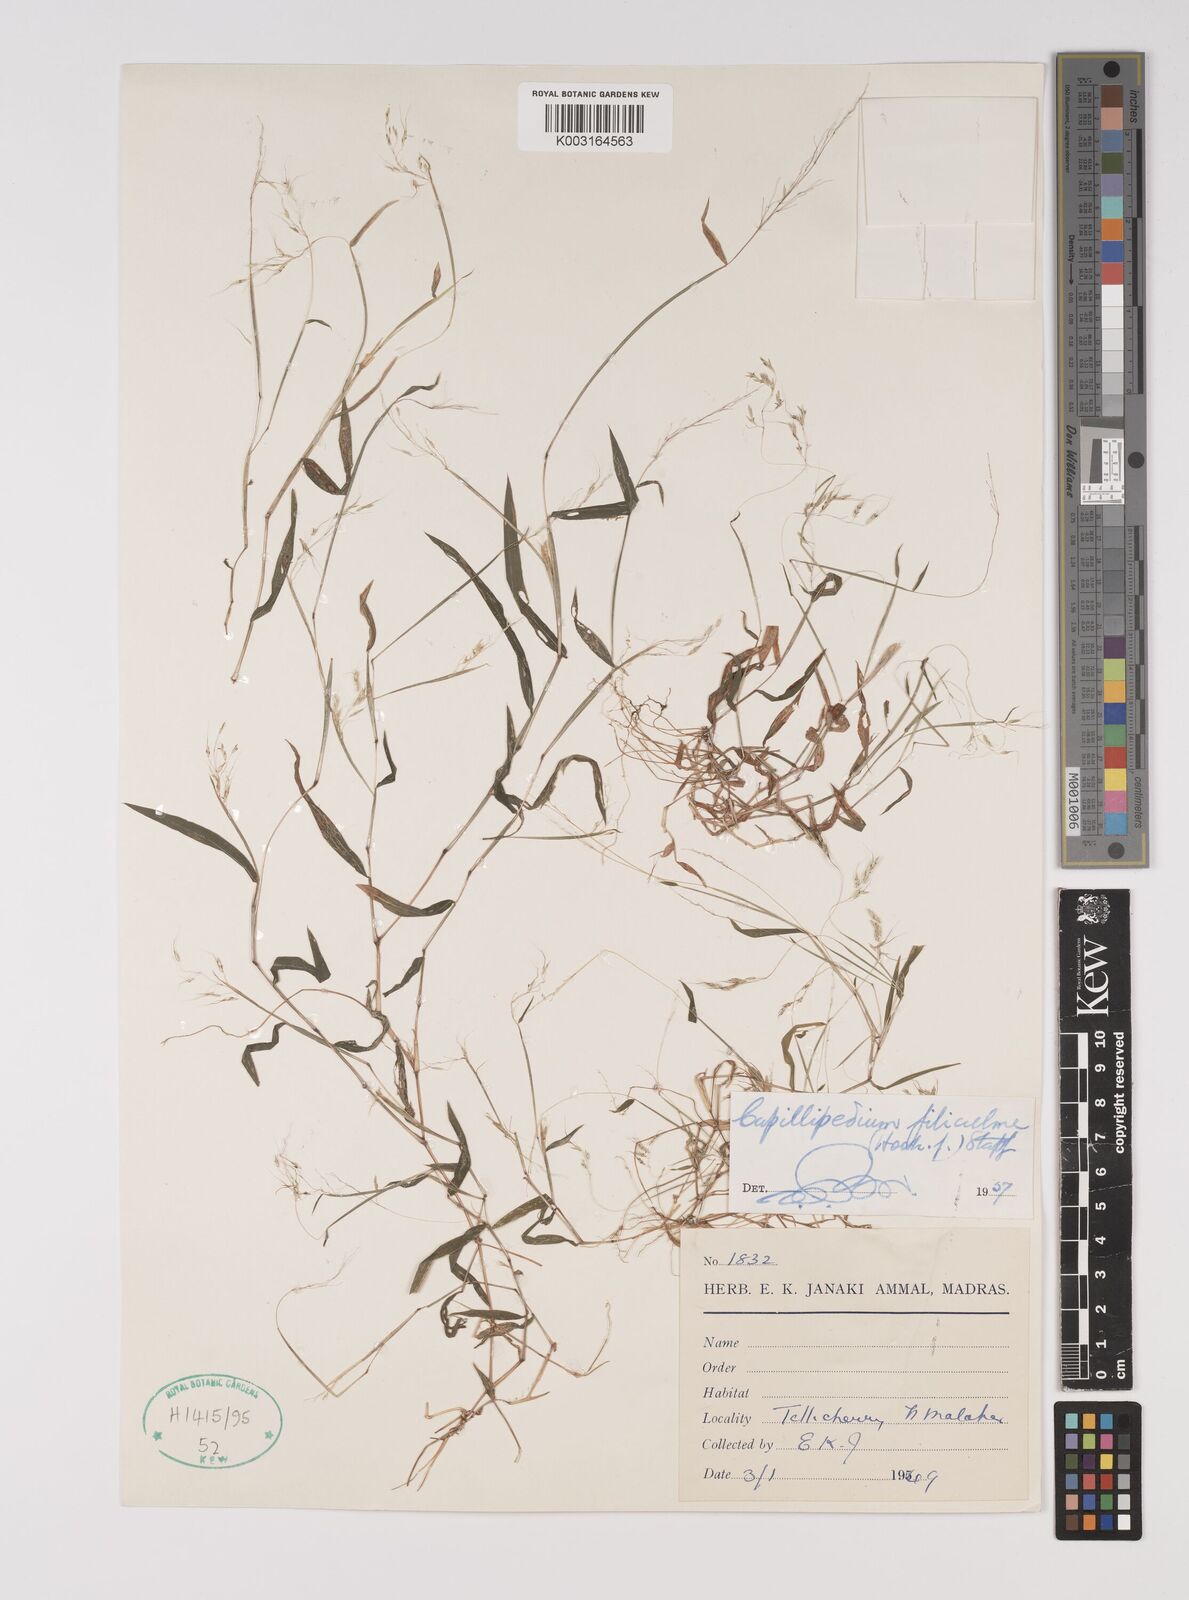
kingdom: Plantae
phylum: Tracheophyta
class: Liliopsida
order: Poales
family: Poaceae
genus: Capillipedium
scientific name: Capillipedium filiculme
